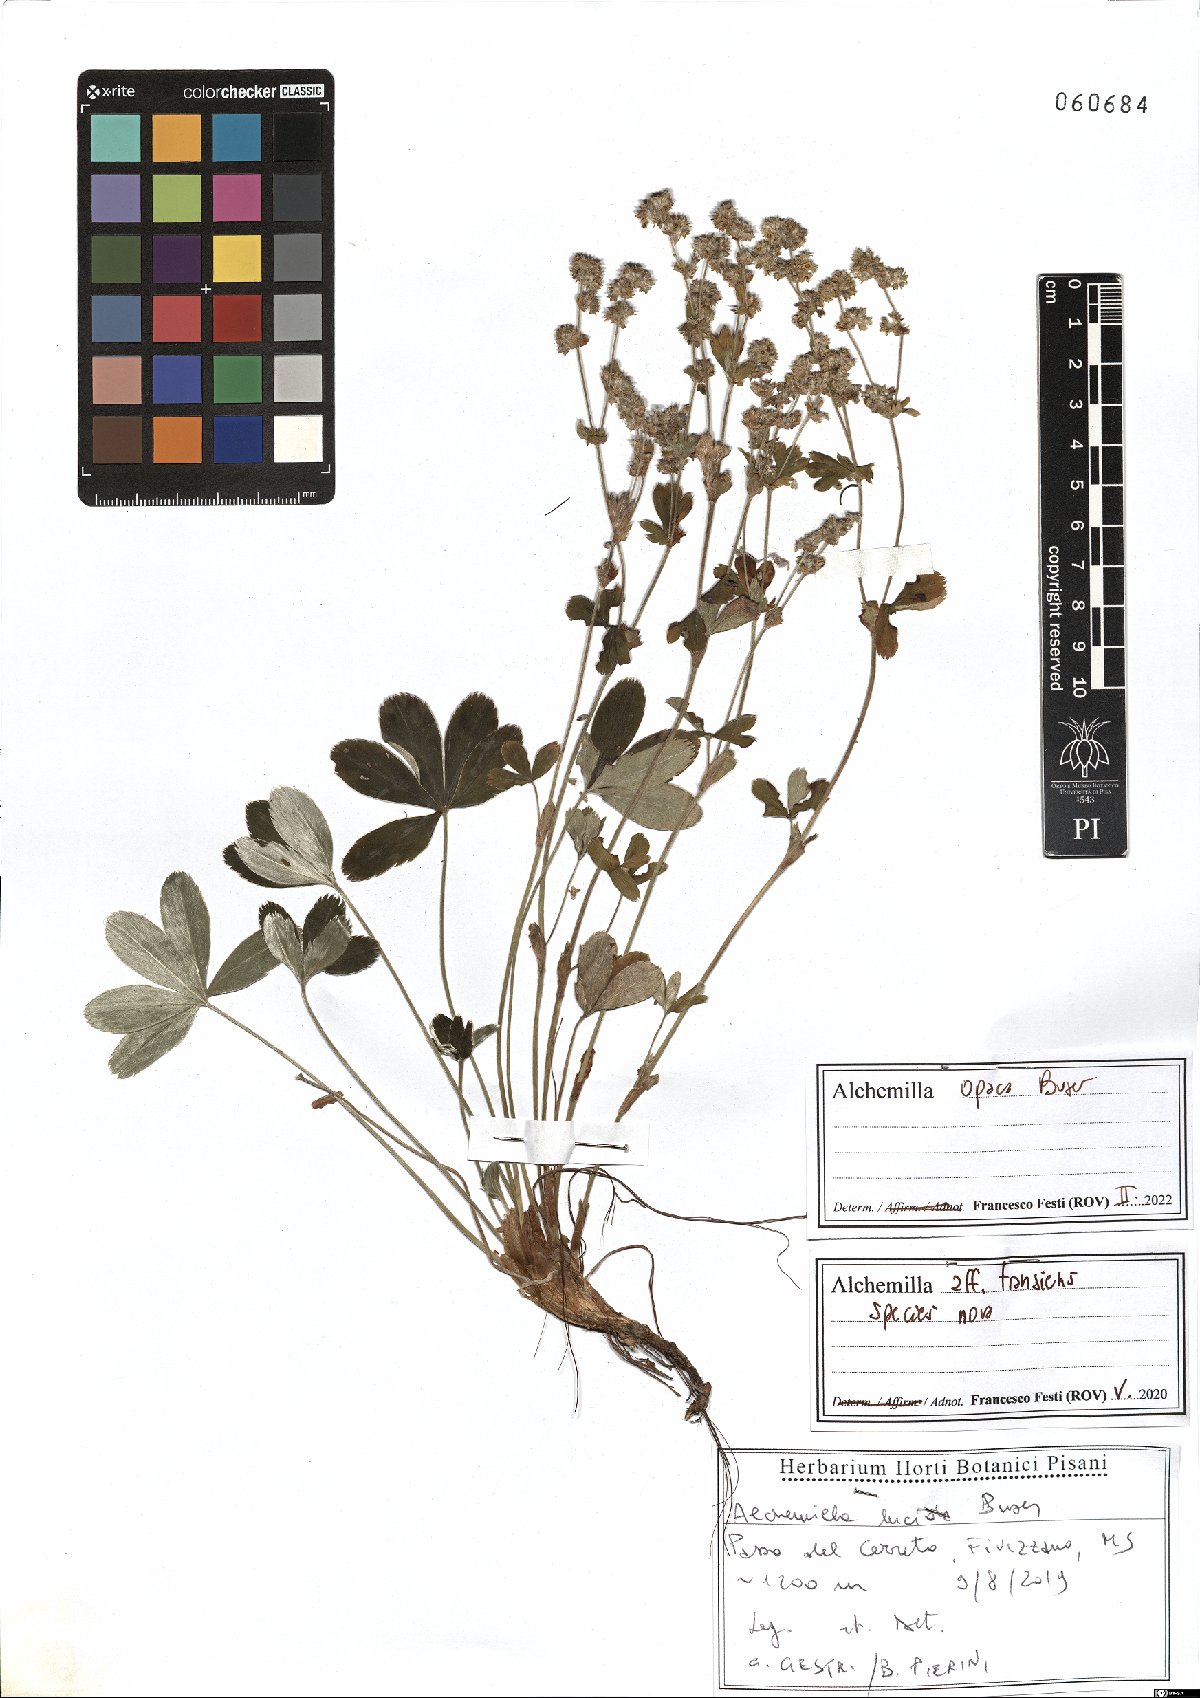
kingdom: Plantae
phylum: Tracheophyta
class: Magnoliopsida
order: Rosales
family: Rosaceae
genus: Alchemilla
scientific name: Alchemilla opaca
